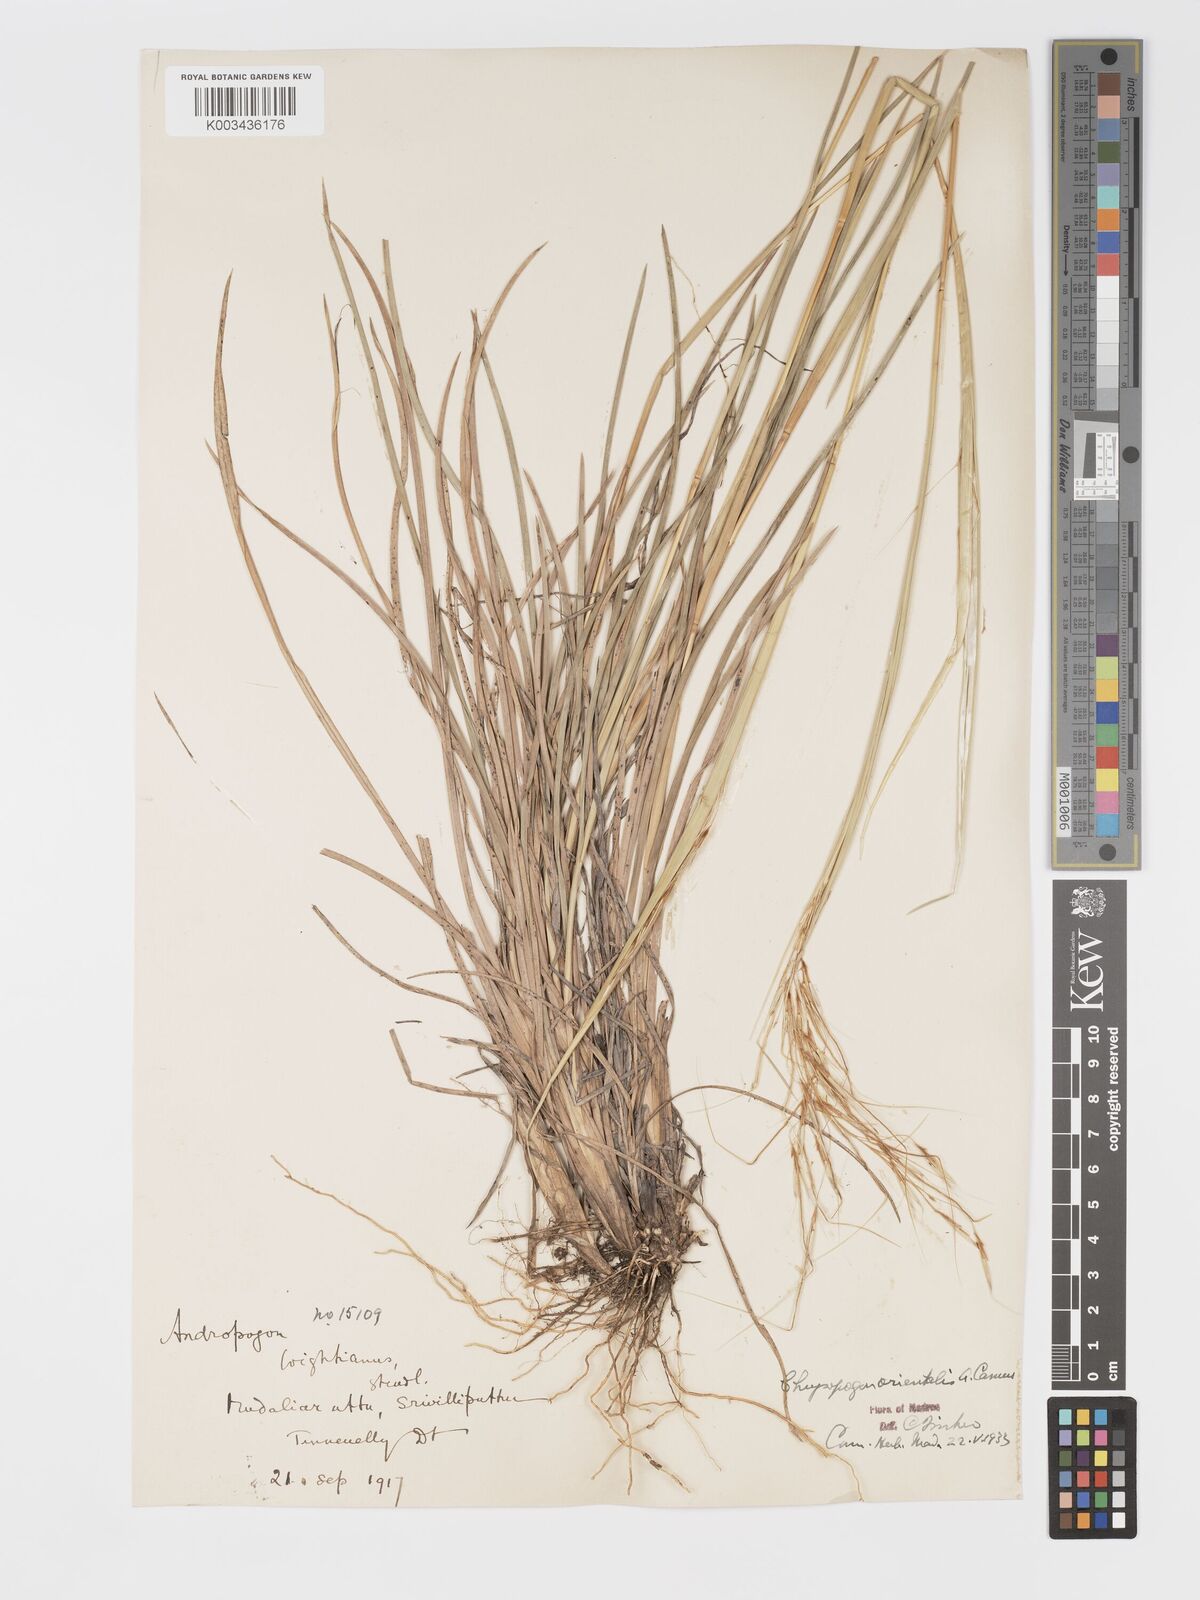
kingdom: Plantae
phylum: Tracheophyta
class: Liliopsida
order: Poales
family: Poaceae
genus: Chrysopogon
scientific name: Chrysopogon orientalis
